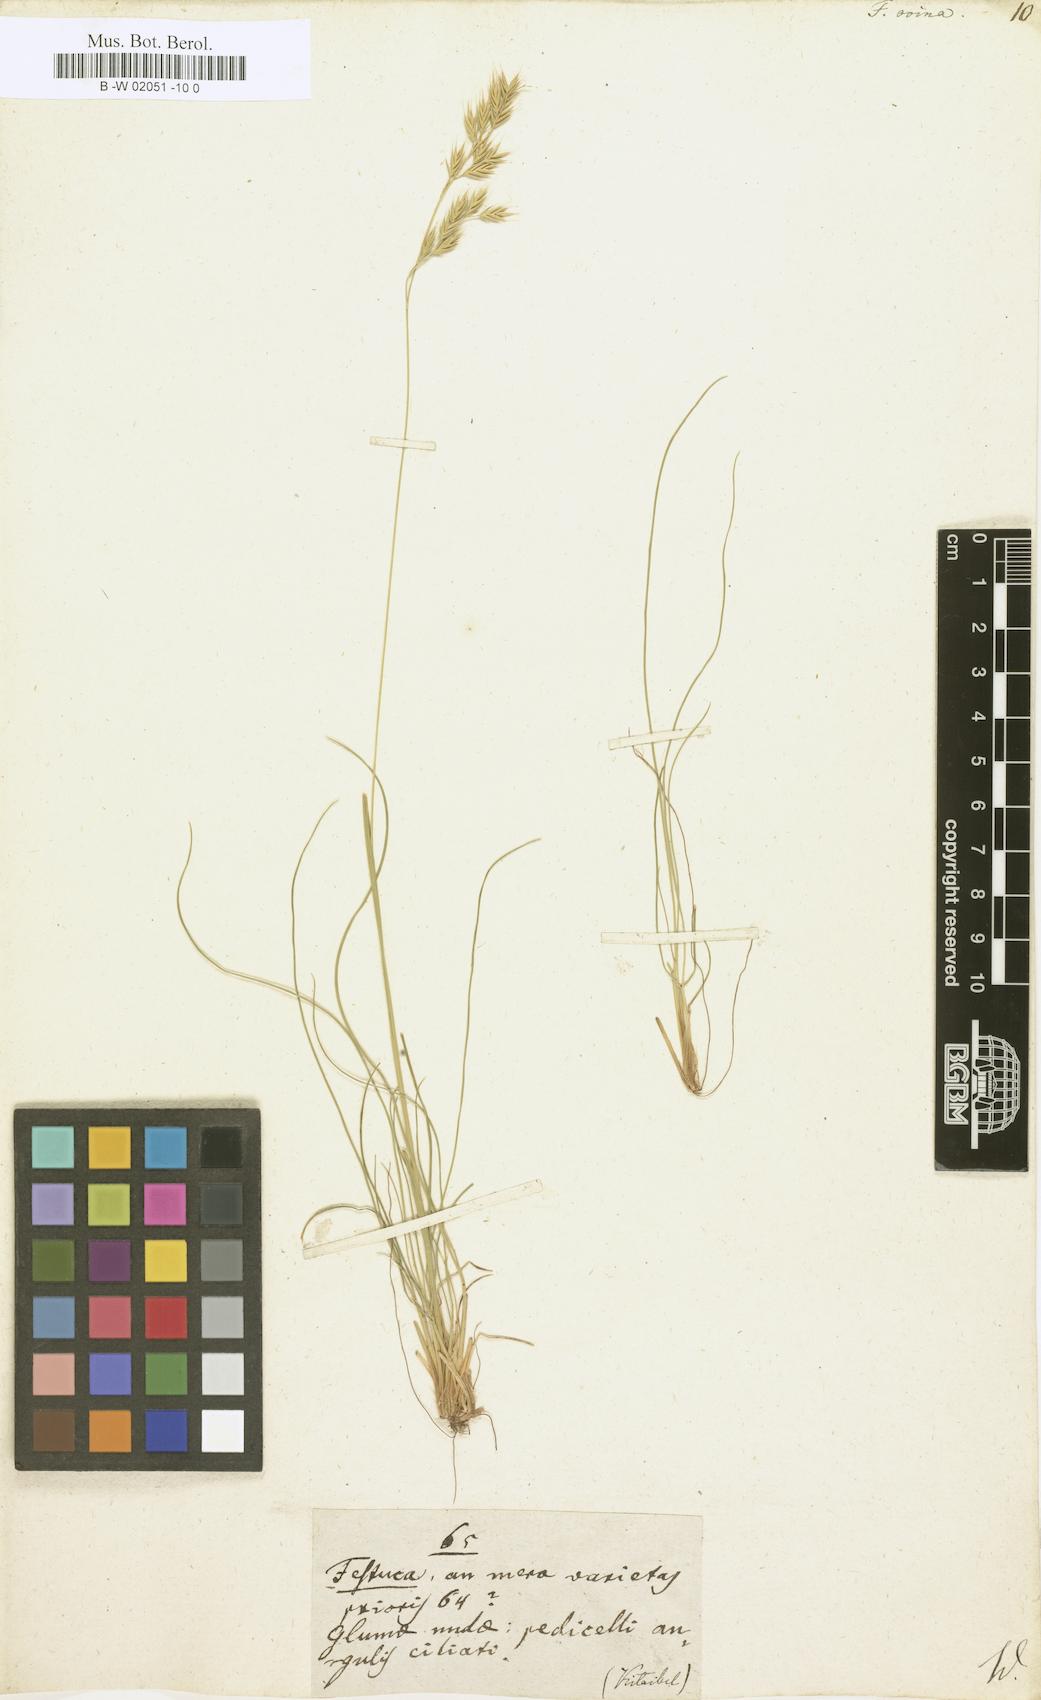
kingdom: Plantae
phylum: Tracheophyta
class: Liliopsida
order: Poales
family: Poaceae
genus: Festuca
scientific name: Festuca ovina
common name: Sheep fescue
